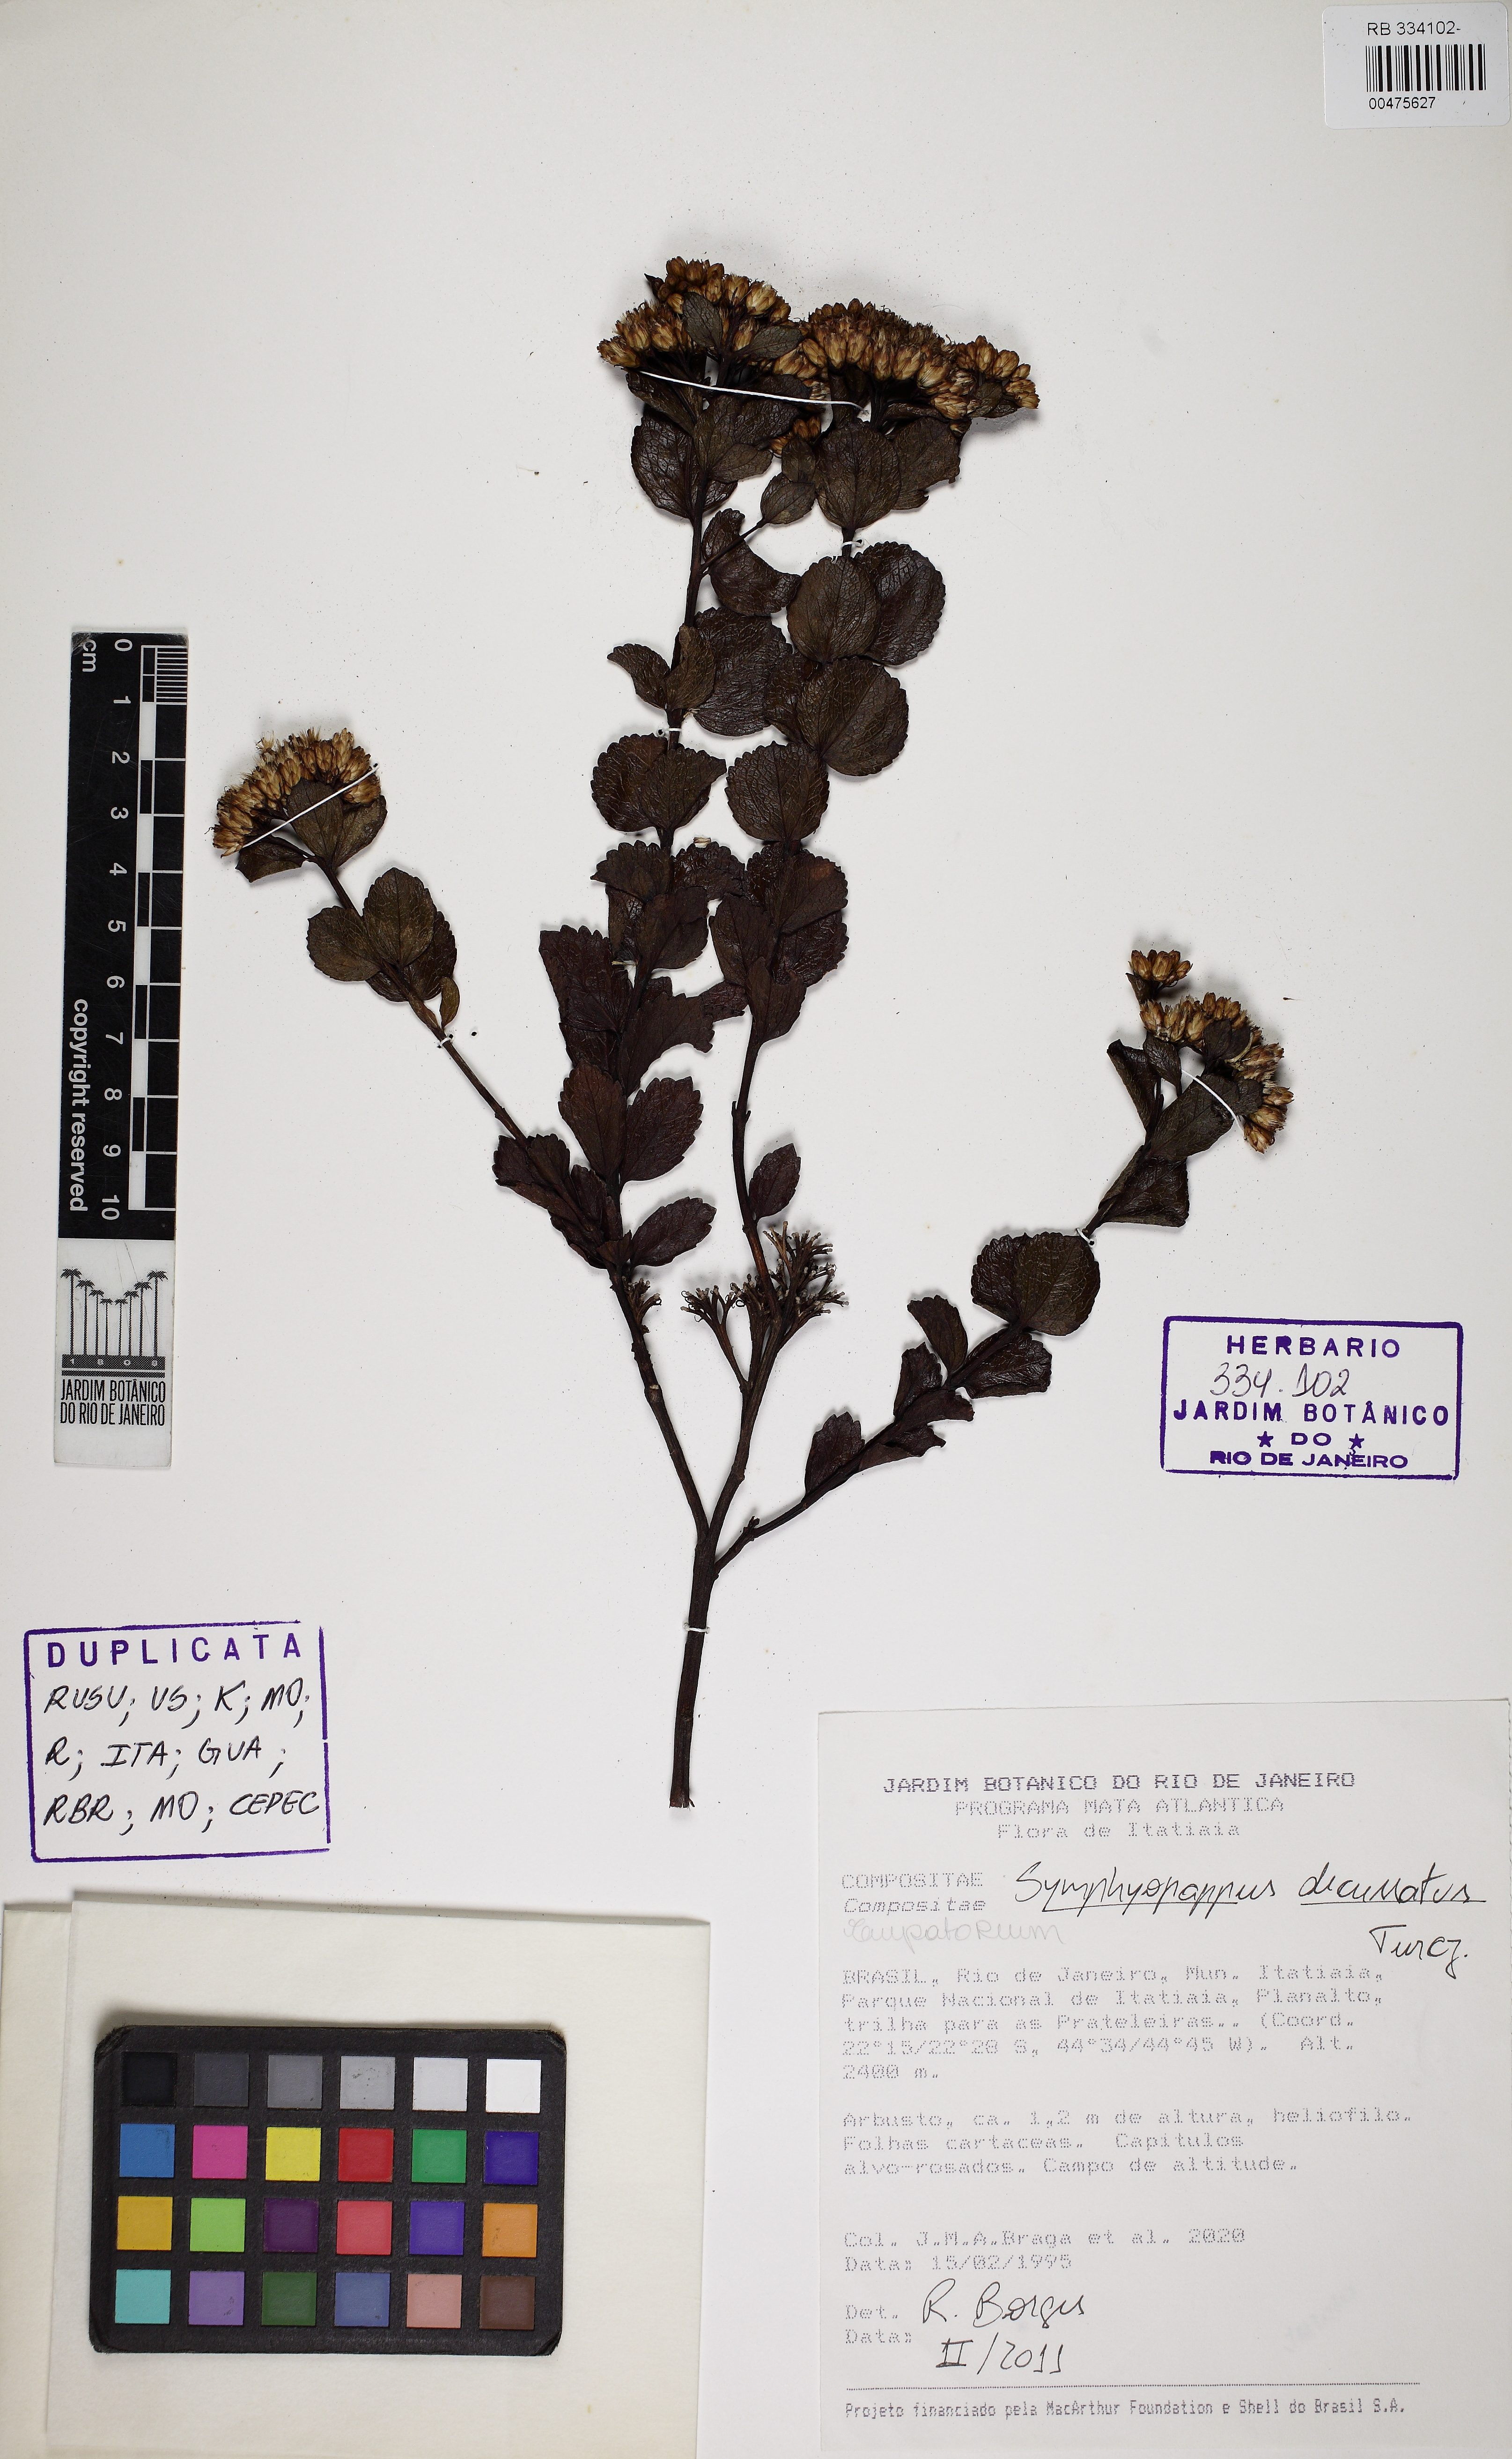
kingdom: Plantae
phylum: Tracheophyta
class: Magnoliopsida
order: Asterales
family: Asteraceae
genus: Symphyopappus
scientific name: Symphyopappus decussatus
